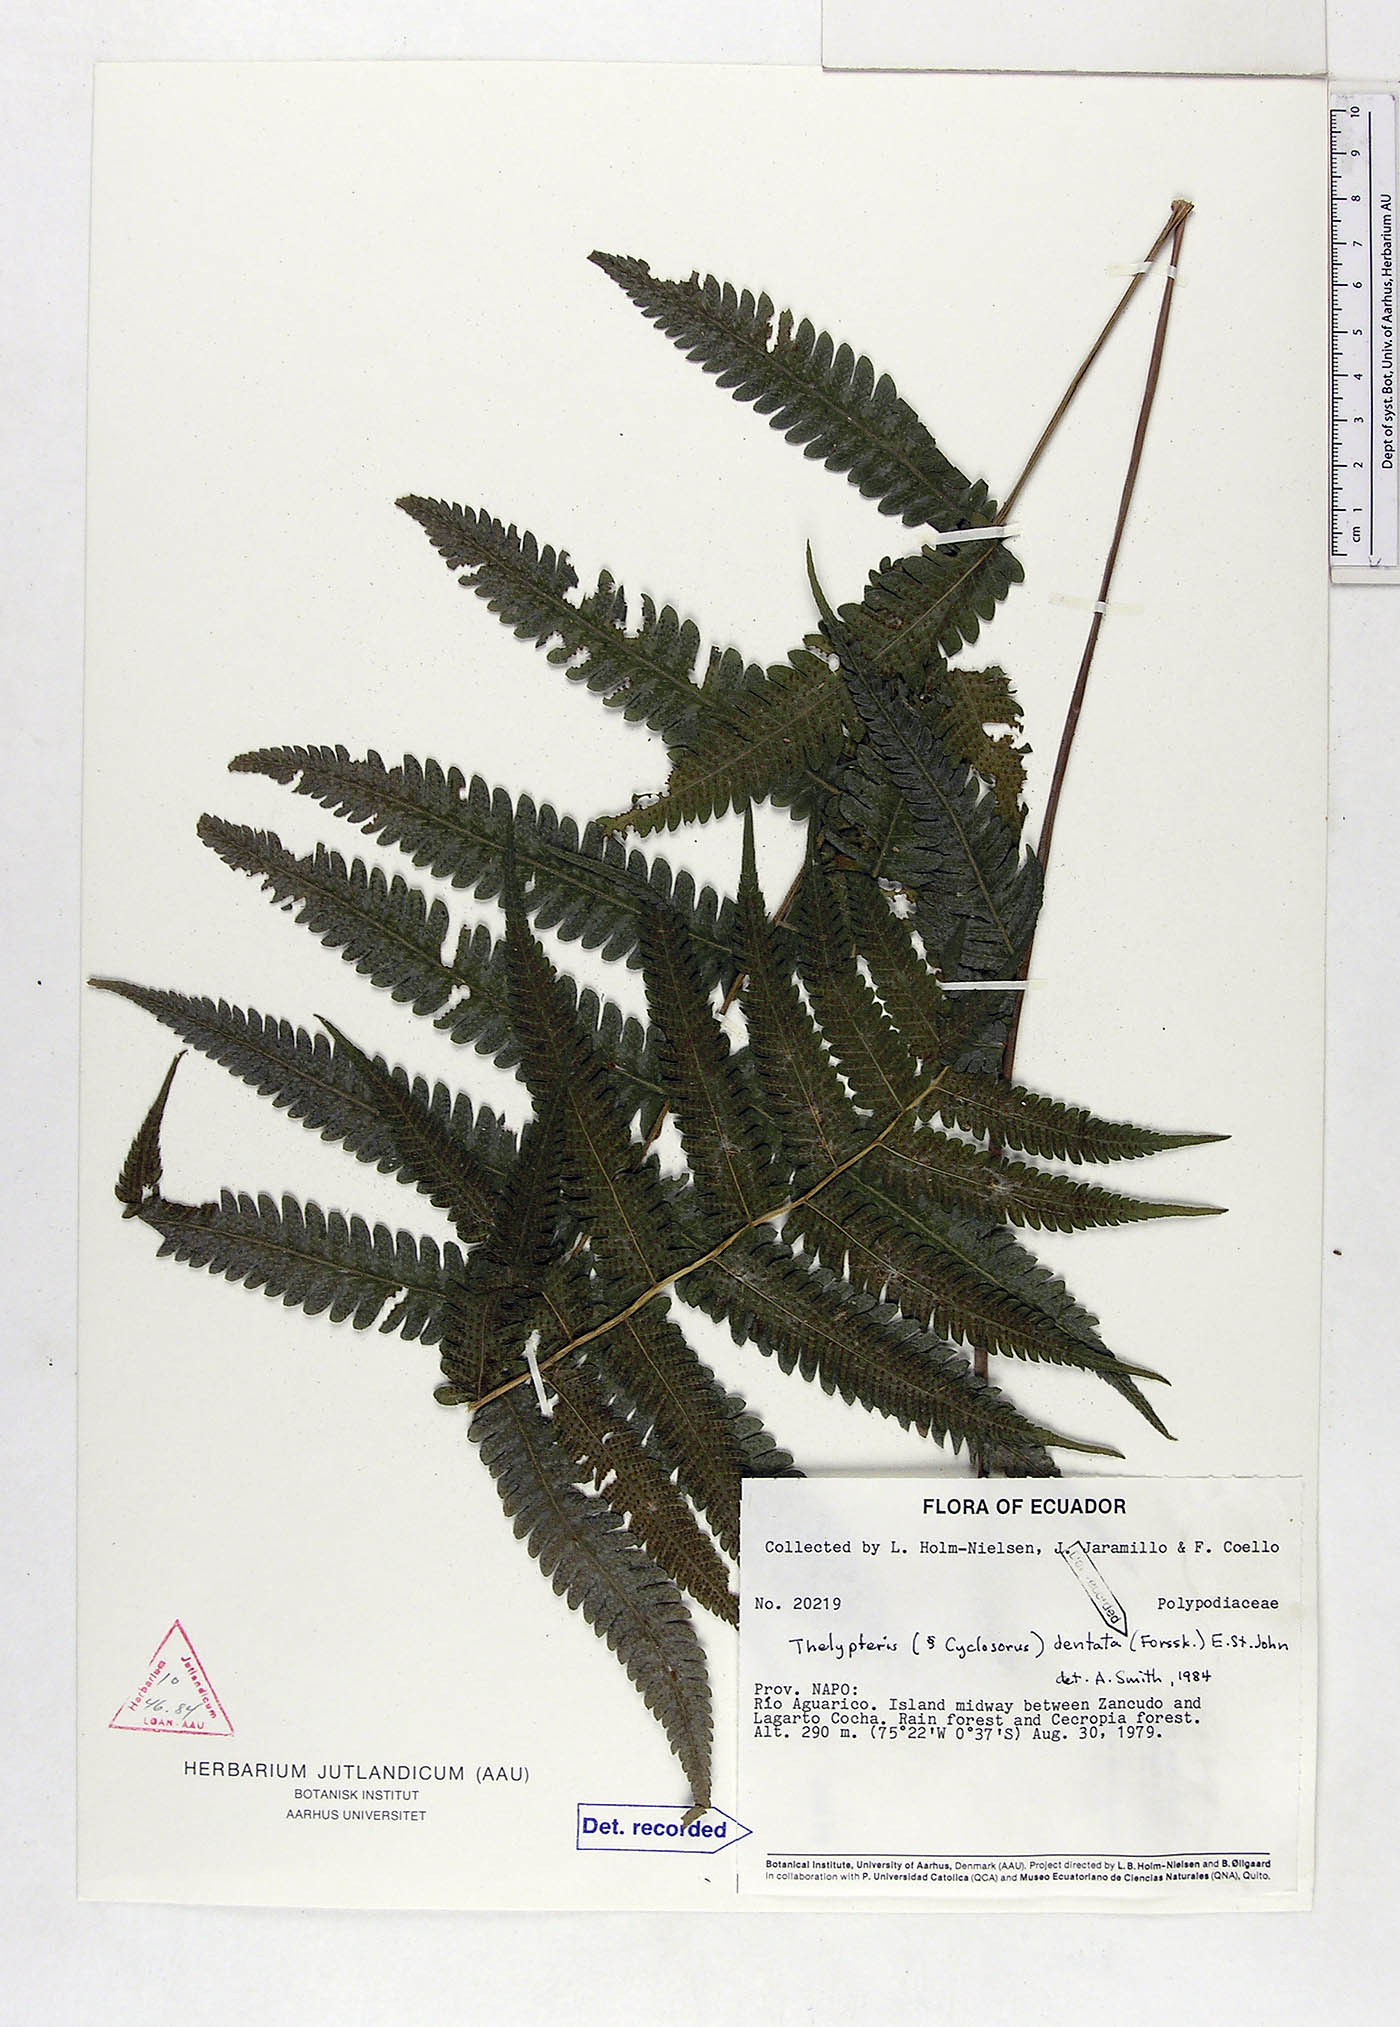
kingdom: Plantae
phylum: Tracheophyta
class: Polypodiopsida
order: Polypodiales
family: Thelypteridaceae
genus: Christella
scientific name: Christella dentata
